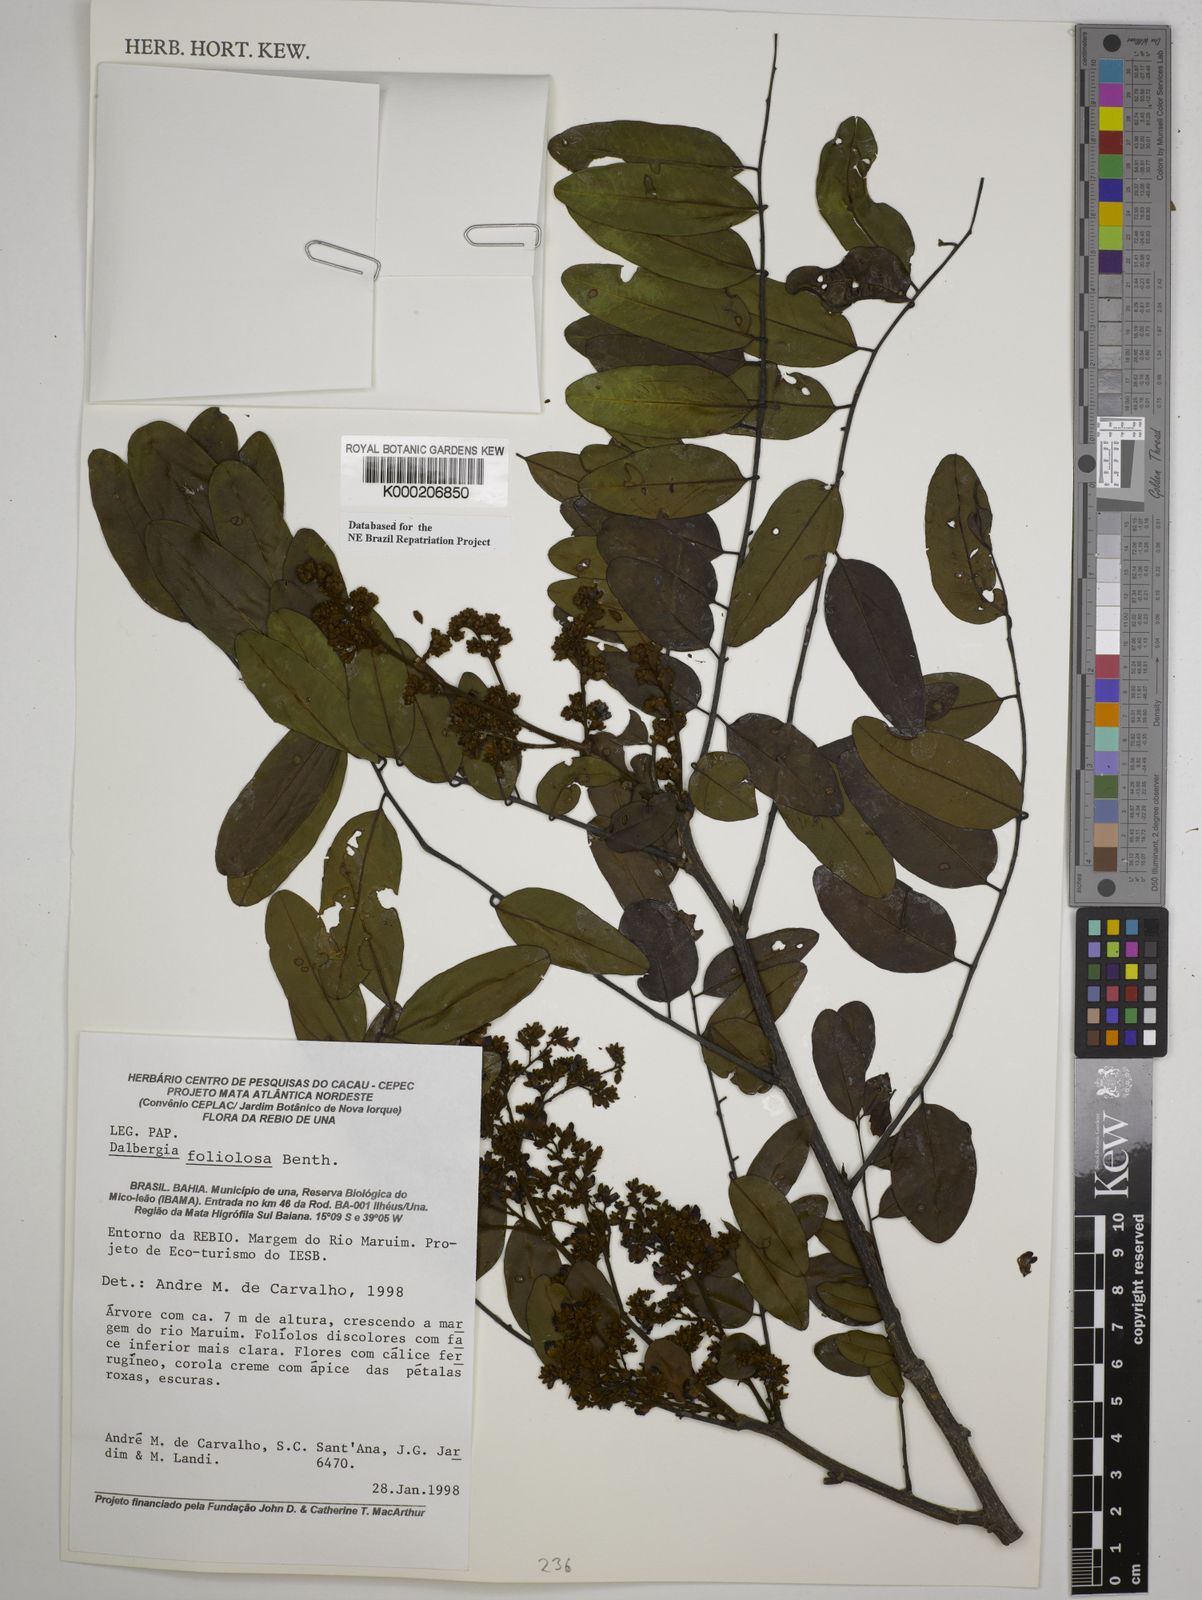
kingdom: Plantae
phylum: Tracheophyta
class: Magnoliopsida
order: Fabales
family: Fabaceae
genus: Dalbergia
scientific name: Dalbergia foliolosa
